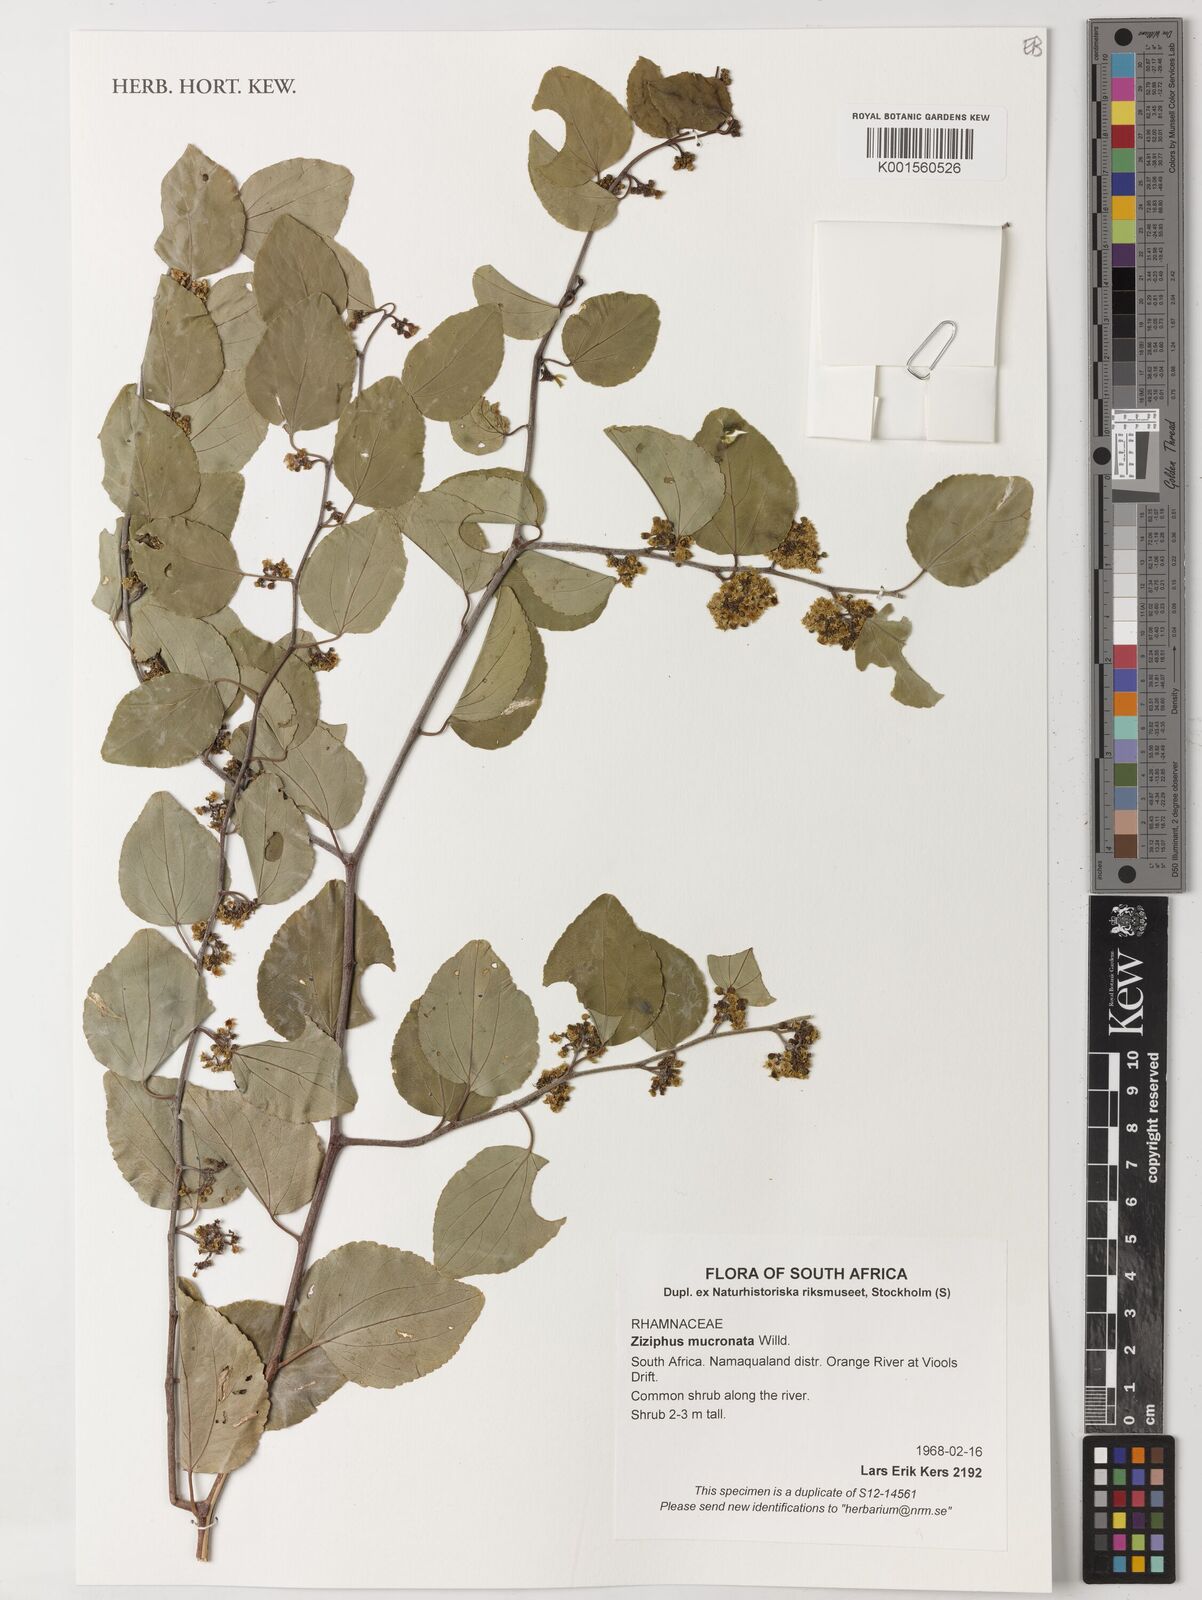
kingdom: Plantae
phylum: Tracheophyta
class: Magnoliopsida
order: Rosales
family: Rhamnaceae
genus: Ziziphus
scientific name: Ziziphus mucronata
